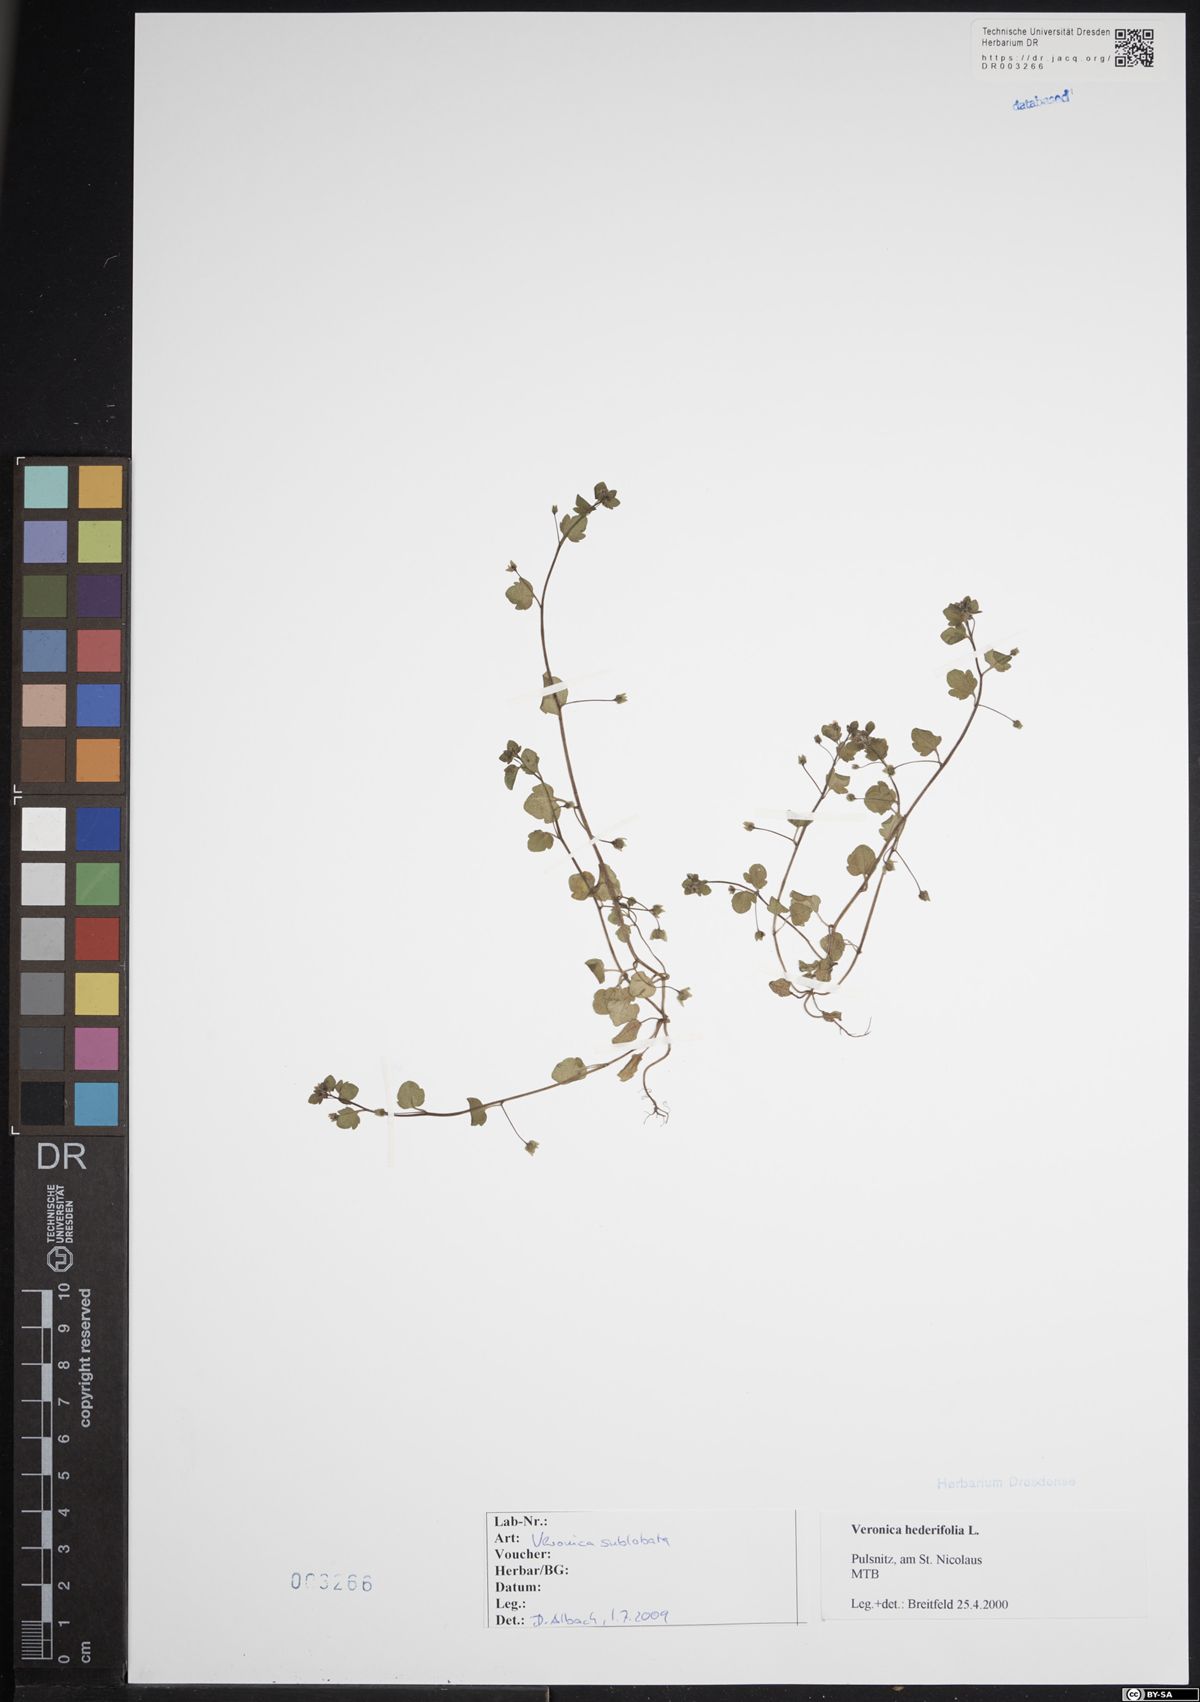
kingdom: Plantae
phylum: Tracheophyta
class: Magnoliopsida
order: Lamiales
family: Plantaginaceae
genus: Veronica
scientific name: Veronica sublobata
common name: False ivy-leaved speedwell
